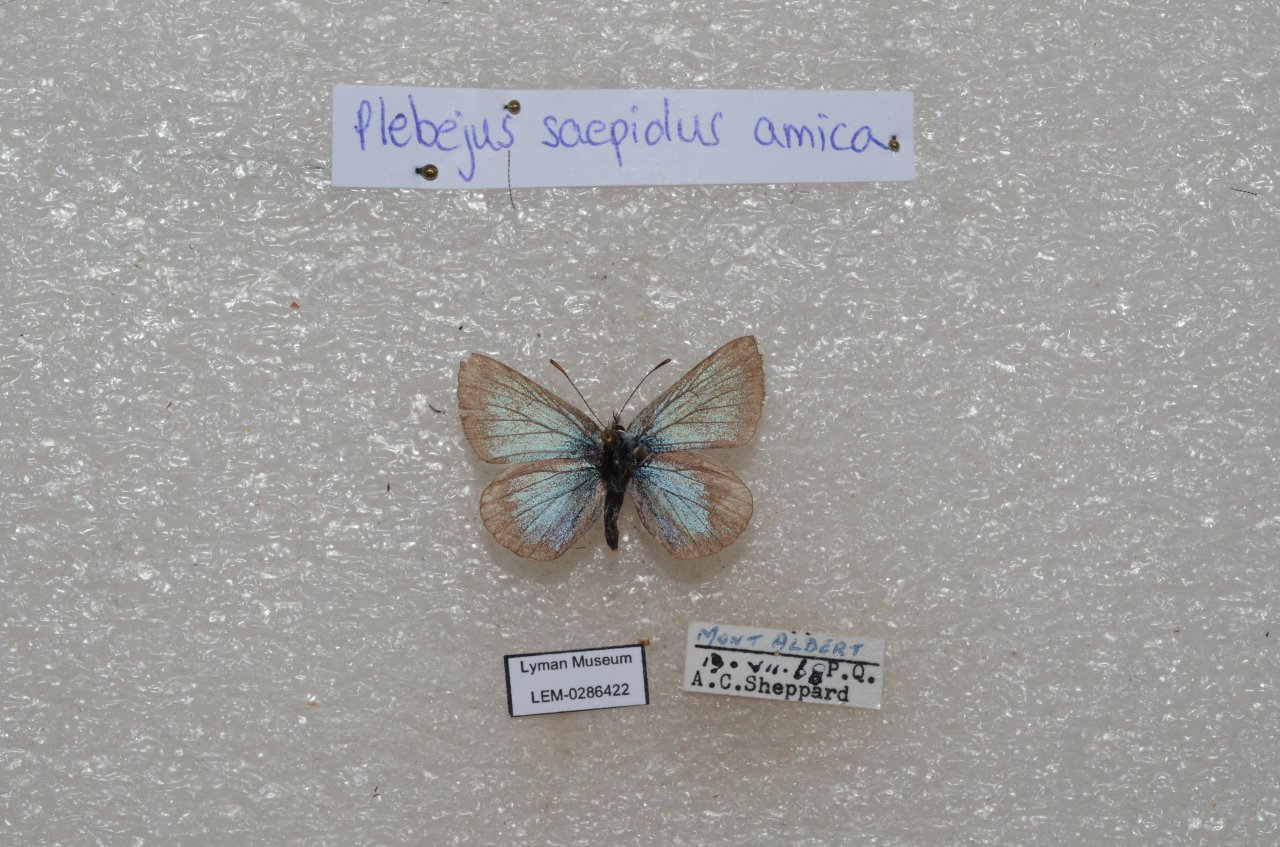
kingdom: Animalia
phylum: Arthropoda
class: Insecta
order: Lepidoptera
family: Lycaenidae
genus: Plebejus
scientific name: Plebejus saepiolus
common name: Greenish Blue
